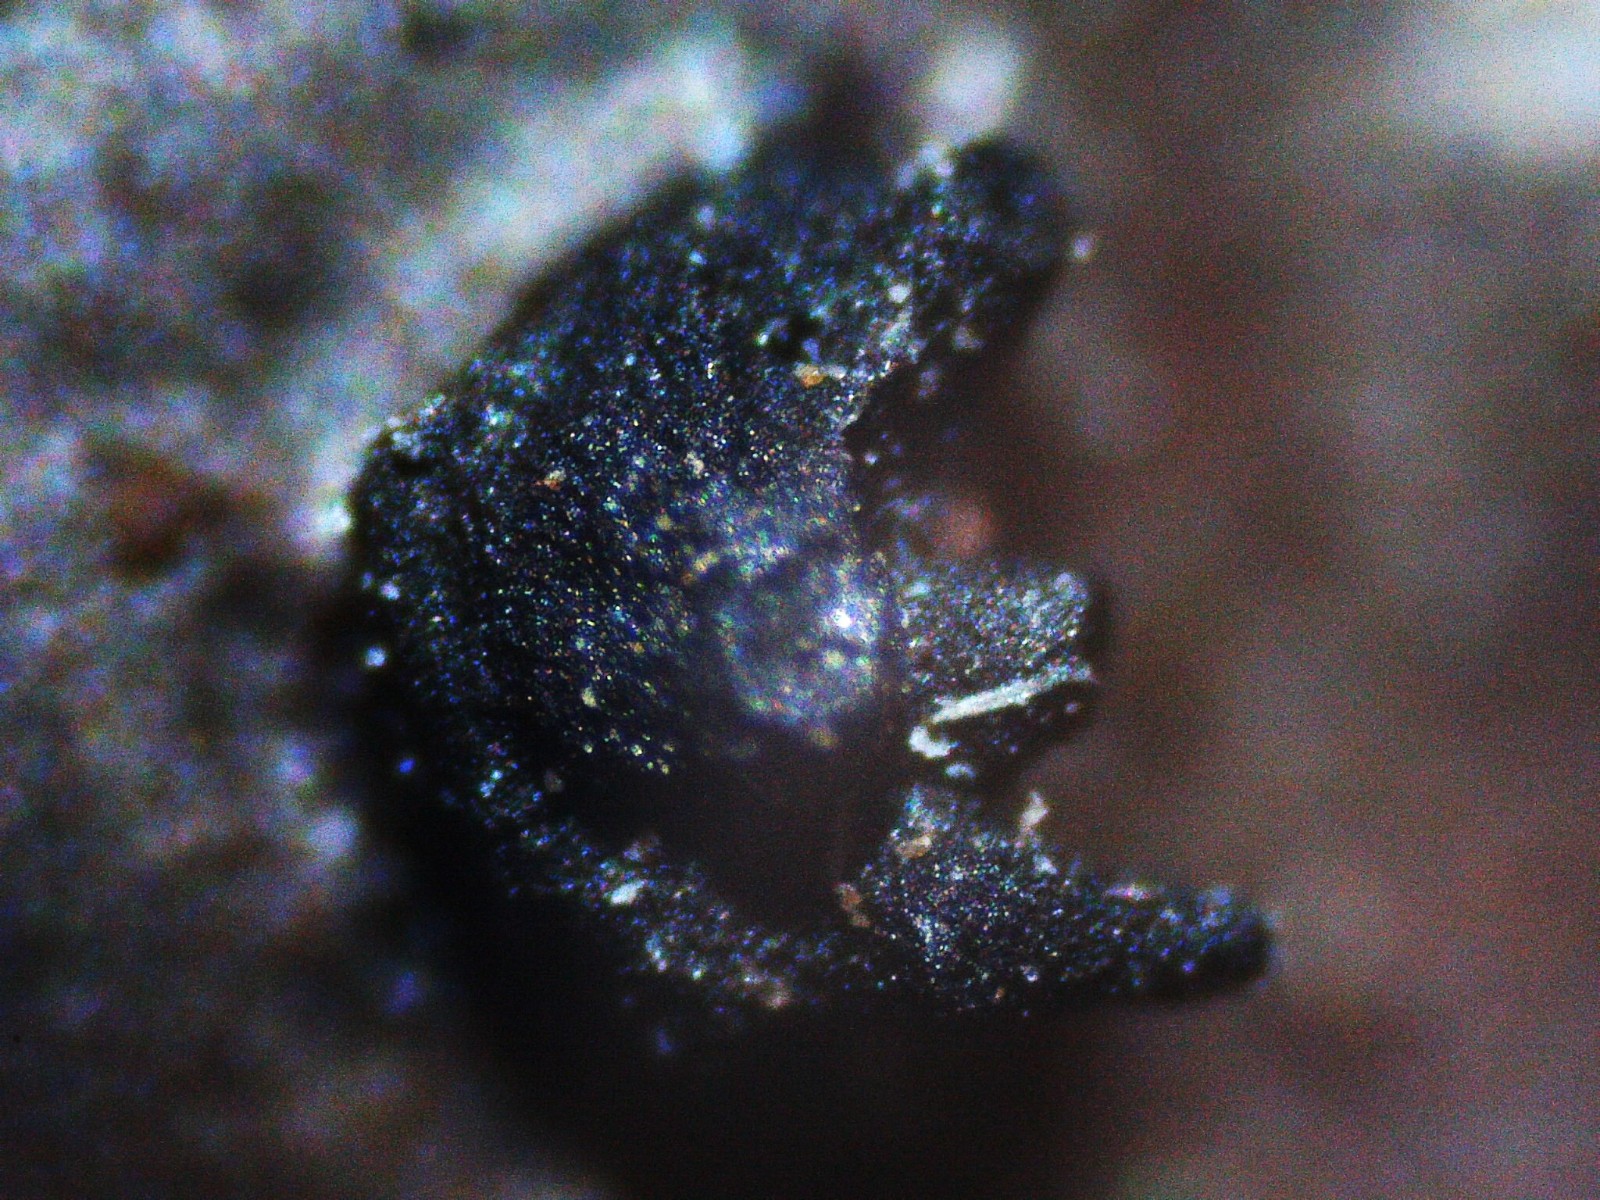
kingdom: Fungi
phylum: Ascomycota
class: Sordariomycetes
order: Xylariales
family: Lopadostomataceae
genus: Lopadostoma
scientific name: Lopadostoma
